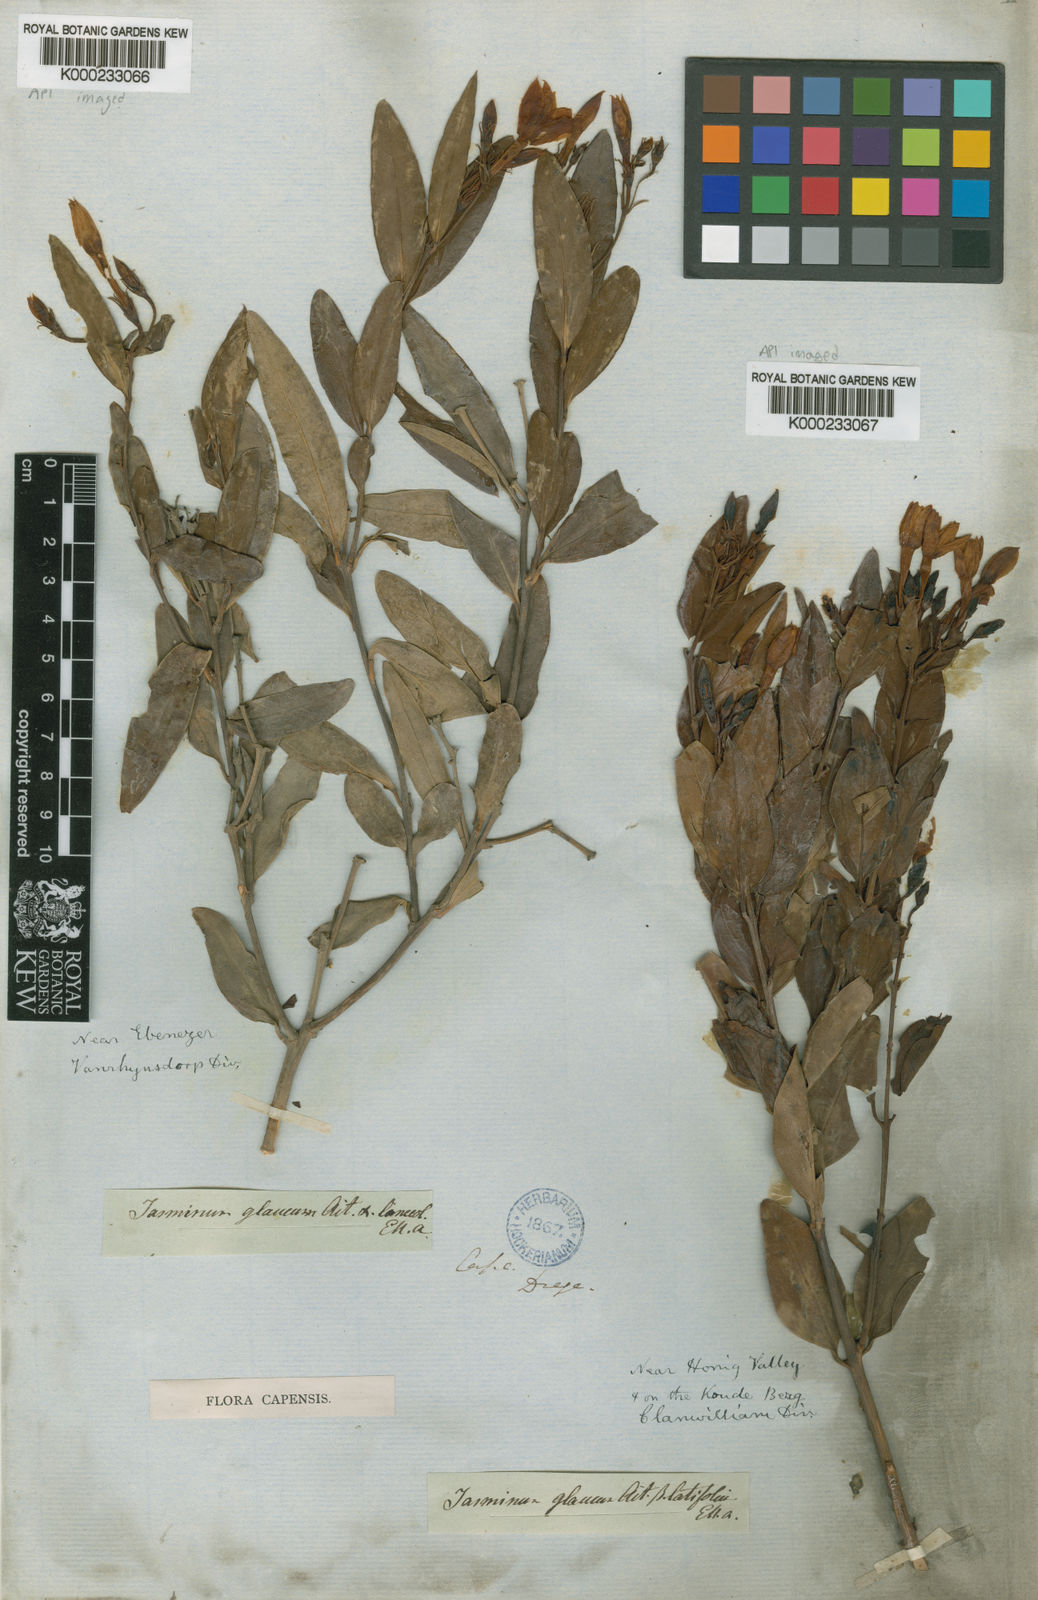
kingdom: Plantae
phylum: Tracheophyta
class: Magnoliopsida
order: Lamiales
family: Oleaceae
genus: Jasminum
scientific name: Jasminum glaucum
